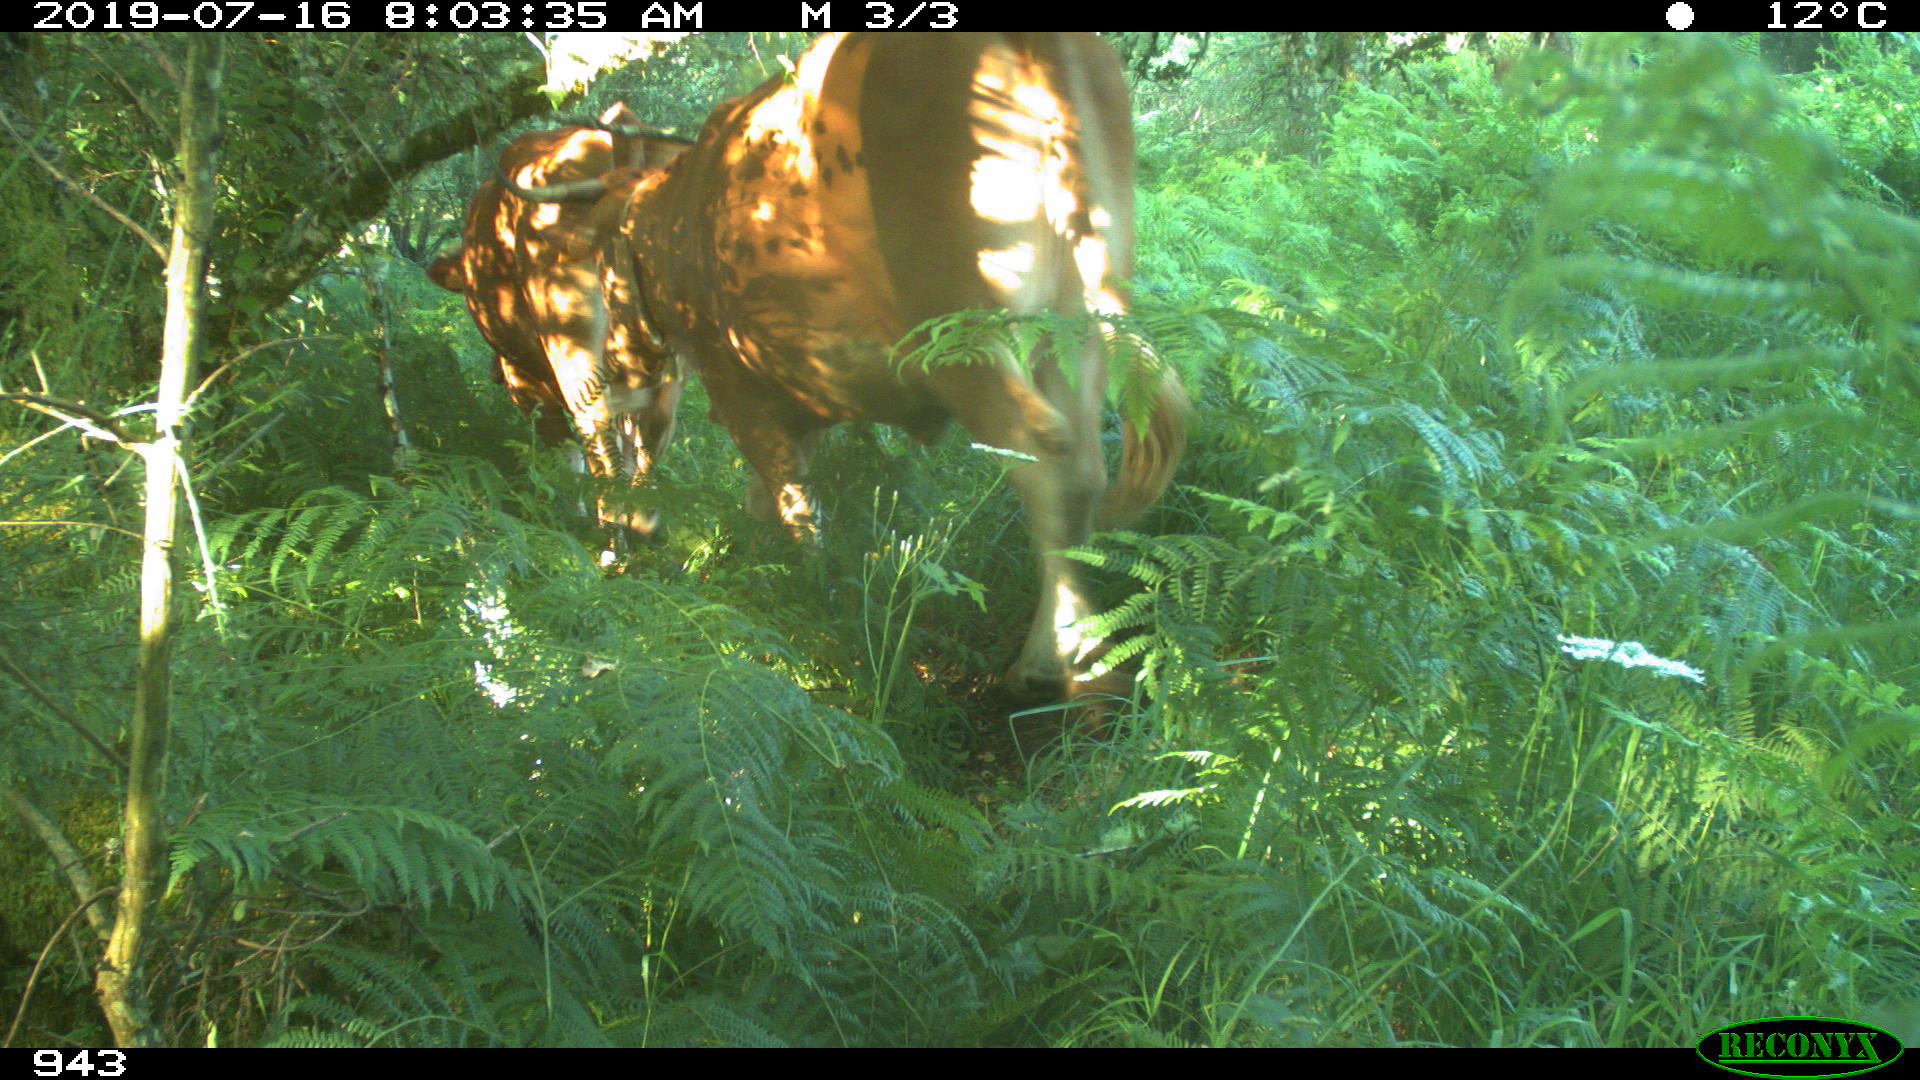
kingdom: Animalia
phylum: Chordata
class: Mammalia
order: Artiodactyla
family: Bovidae
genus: Bos
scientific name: Bos taurus
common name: Domesticated cattle
